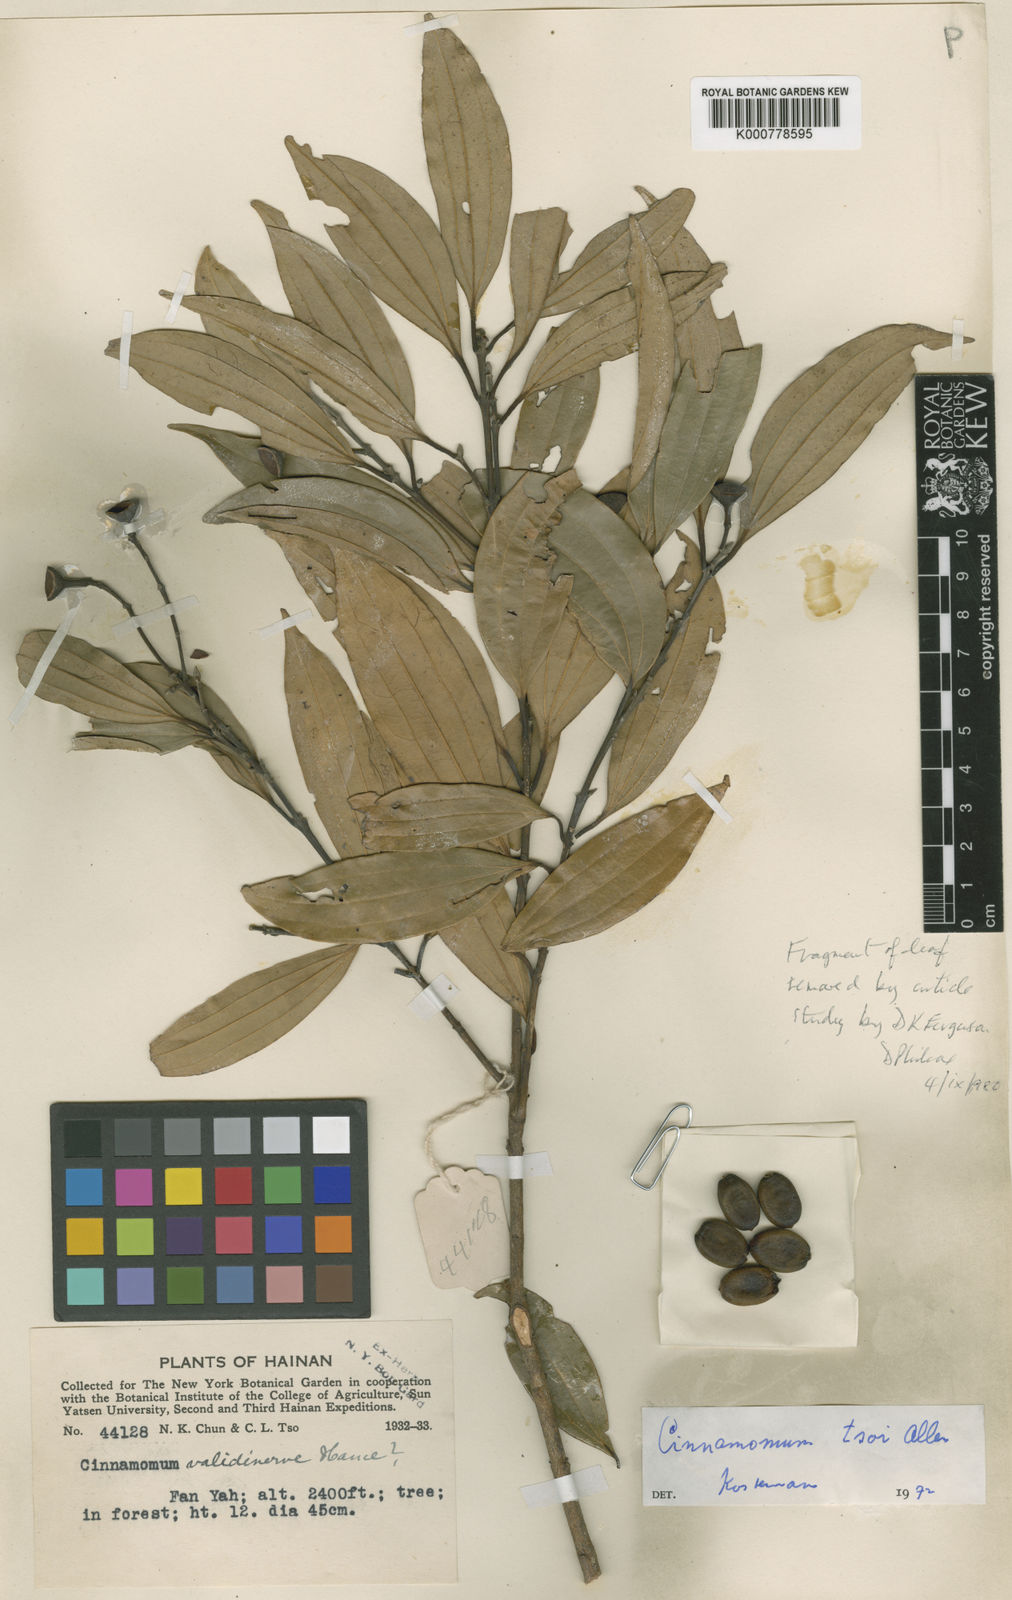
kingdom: Plantae
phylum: Tracheophyta
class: Magnoliopsida
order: Laurales
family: Lauraceae
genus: Cinnamomum
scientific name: Cinnamomum tsoi
